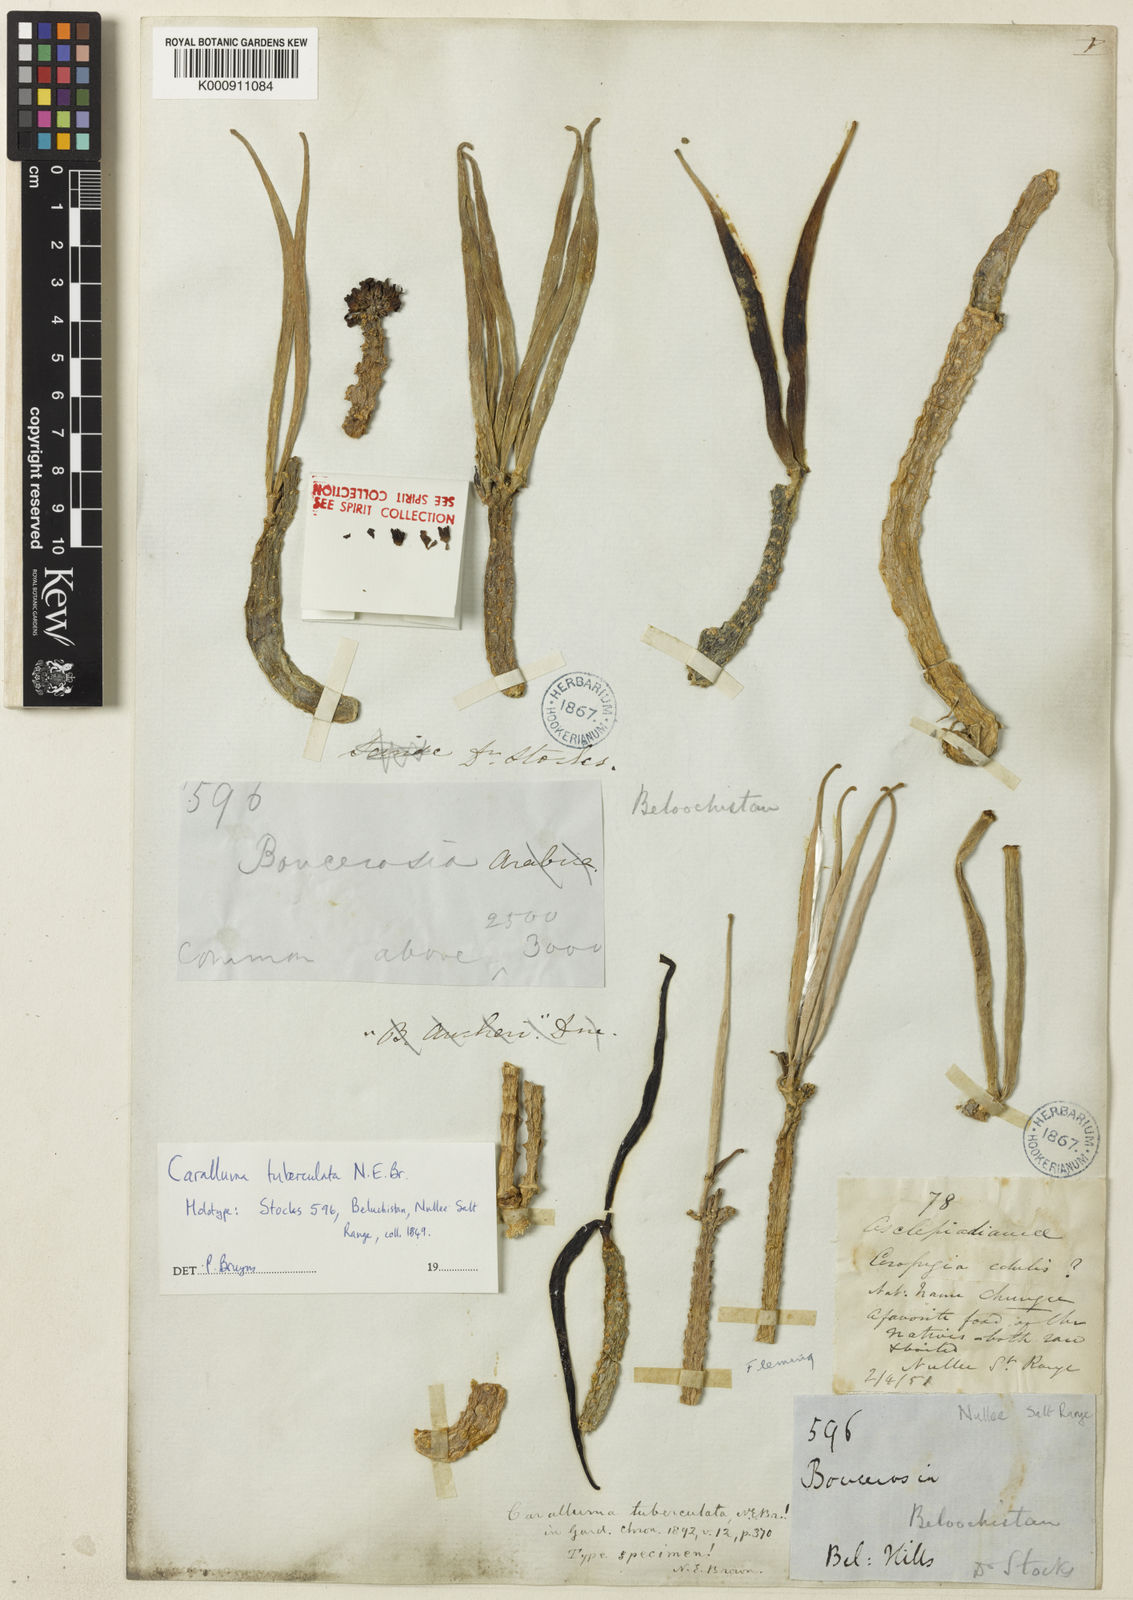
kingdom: Plantae
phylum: Tracheophyta
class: Magnoliopsida
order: Gentianales
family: Apocynaceae
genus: Ceropegia
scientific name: Ceropegia plicatiloba
